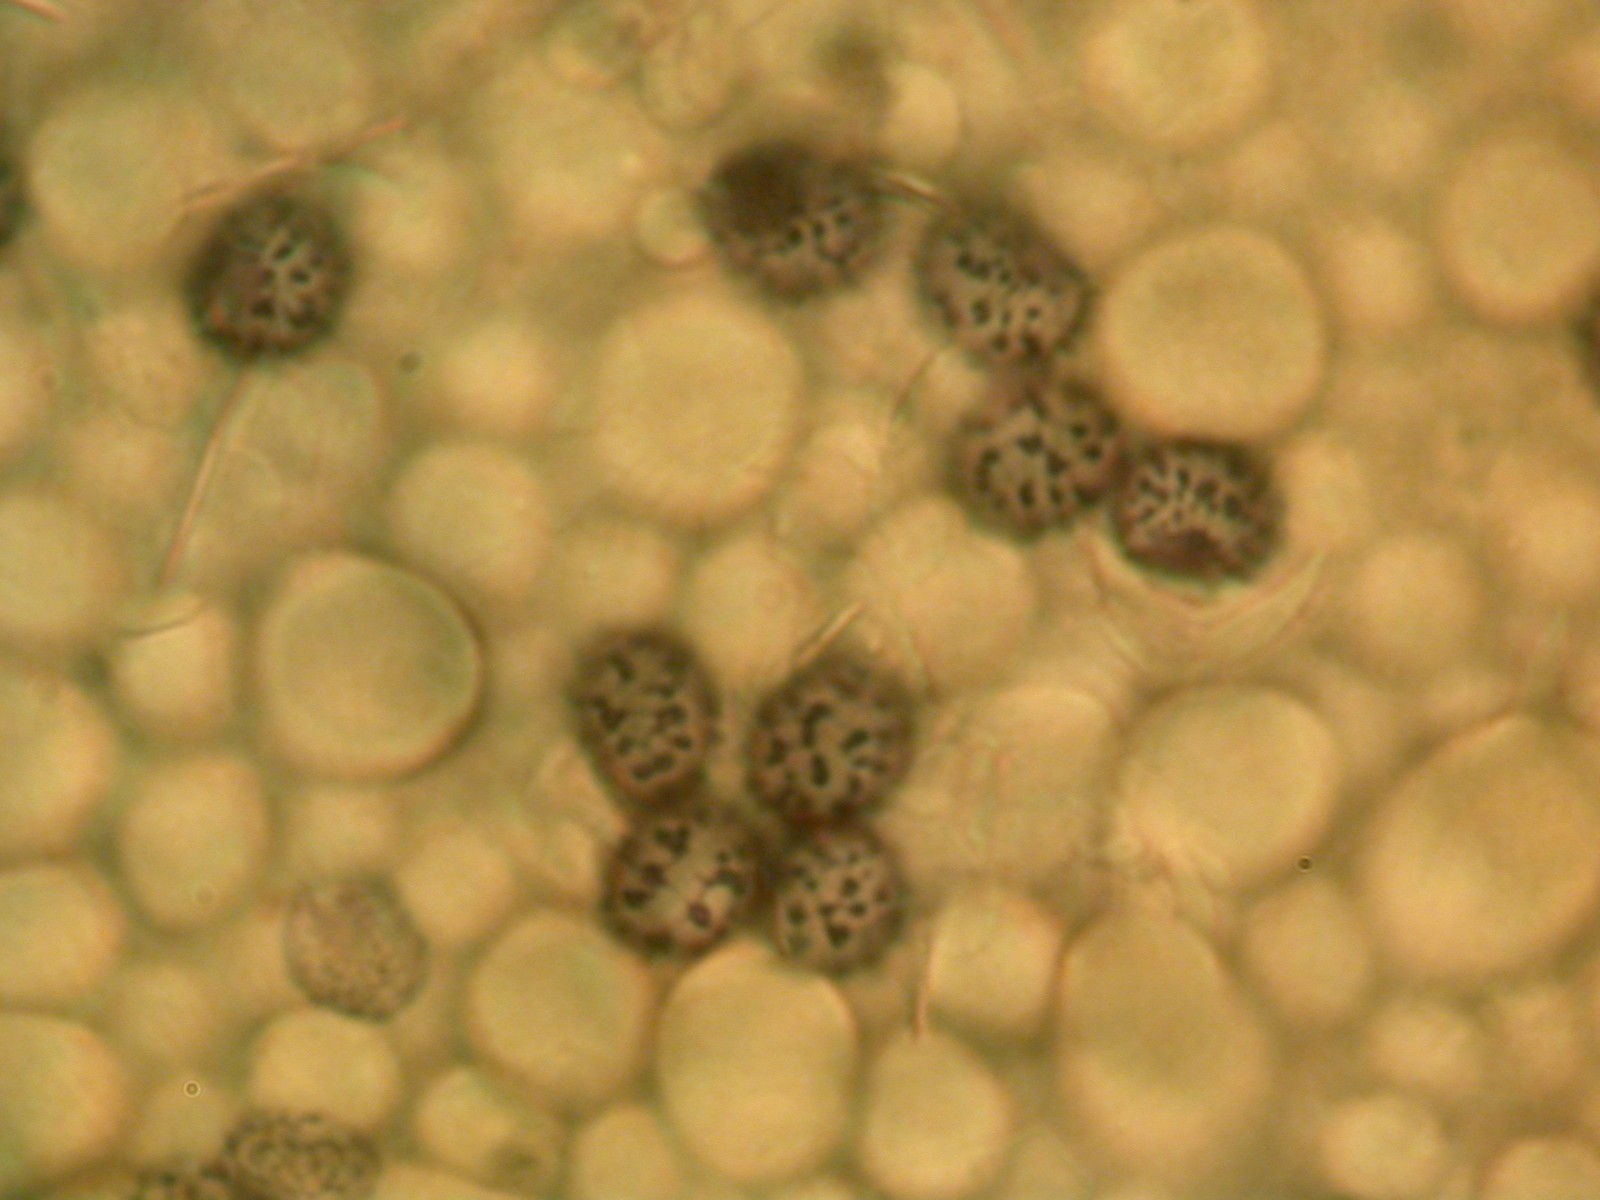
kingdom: Fungi
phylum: Basidiomycota
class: Agaricomycetes
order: Russulales
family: Russulaceae
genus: Russula
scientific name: Russula silvestris
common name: mellemstor gift-skørhat
